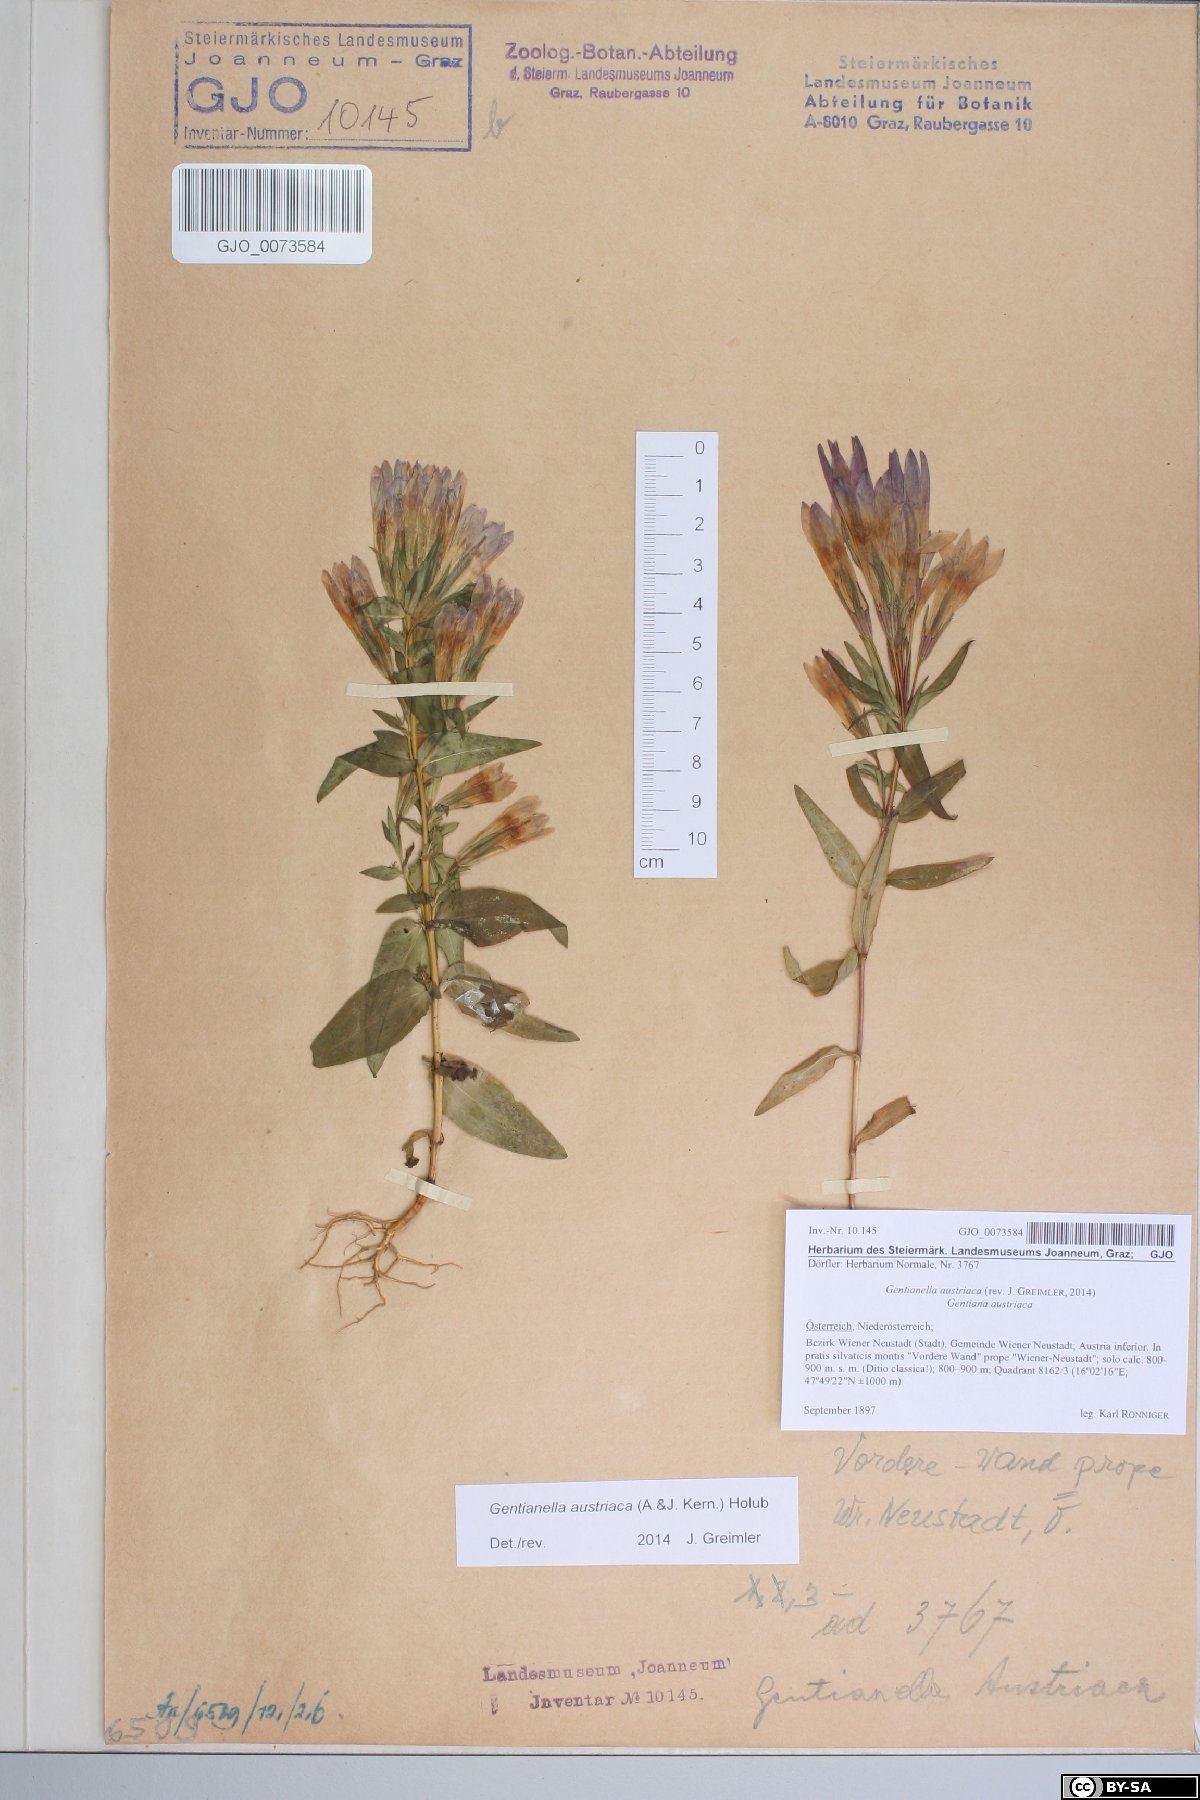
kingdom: Plantae
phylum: Tracheophyta
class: Magnoliopsida
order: Gentianales
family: Gentianaceae
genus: Gentianella
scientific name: Gentianella austriaca
